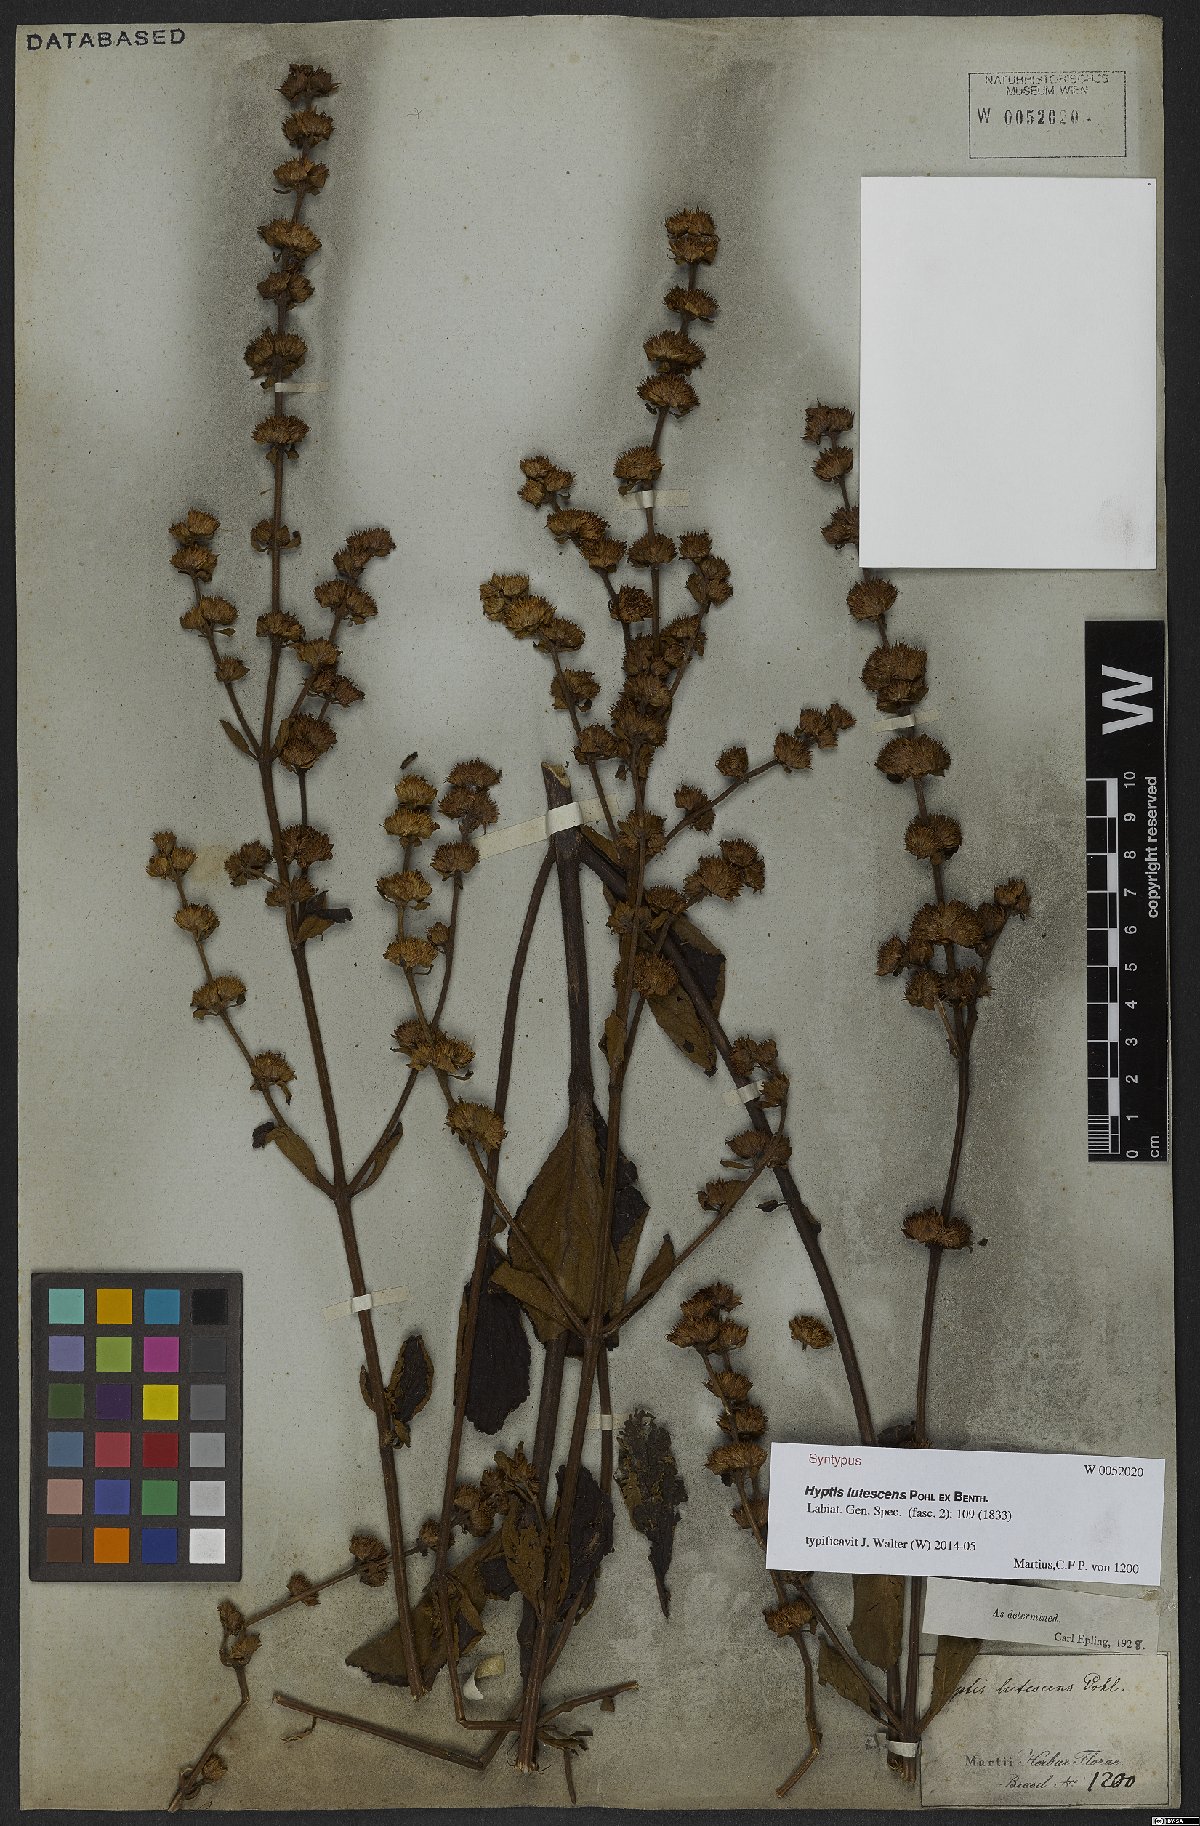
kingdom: Plantae
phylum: Tracheophyta
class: Magnoliopsida
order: Lamiales
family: Lamiaceae
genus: Hyptis
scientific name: Hyptis lutescens
